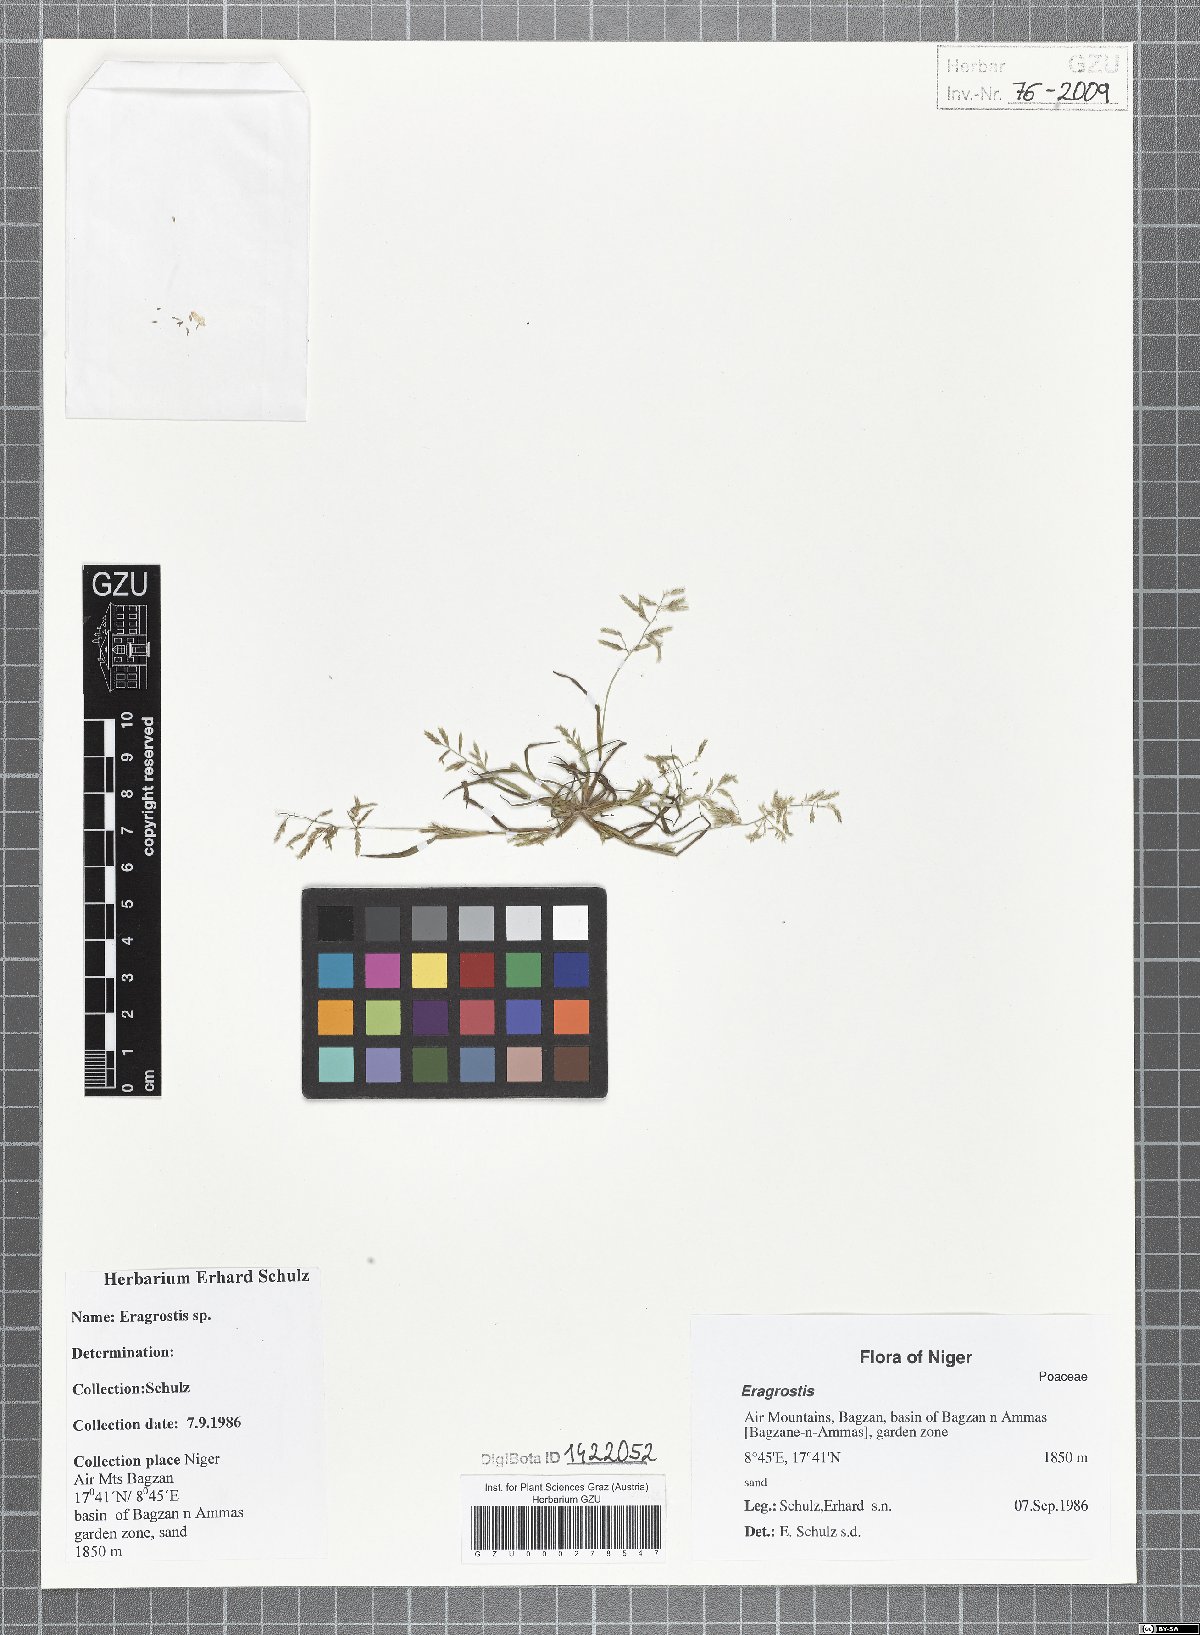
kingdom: Plantae
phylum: Tracheophyta
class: Liliopsida
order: Poales
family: Poaceae
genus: Eragrostis
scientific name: Eragrostis
